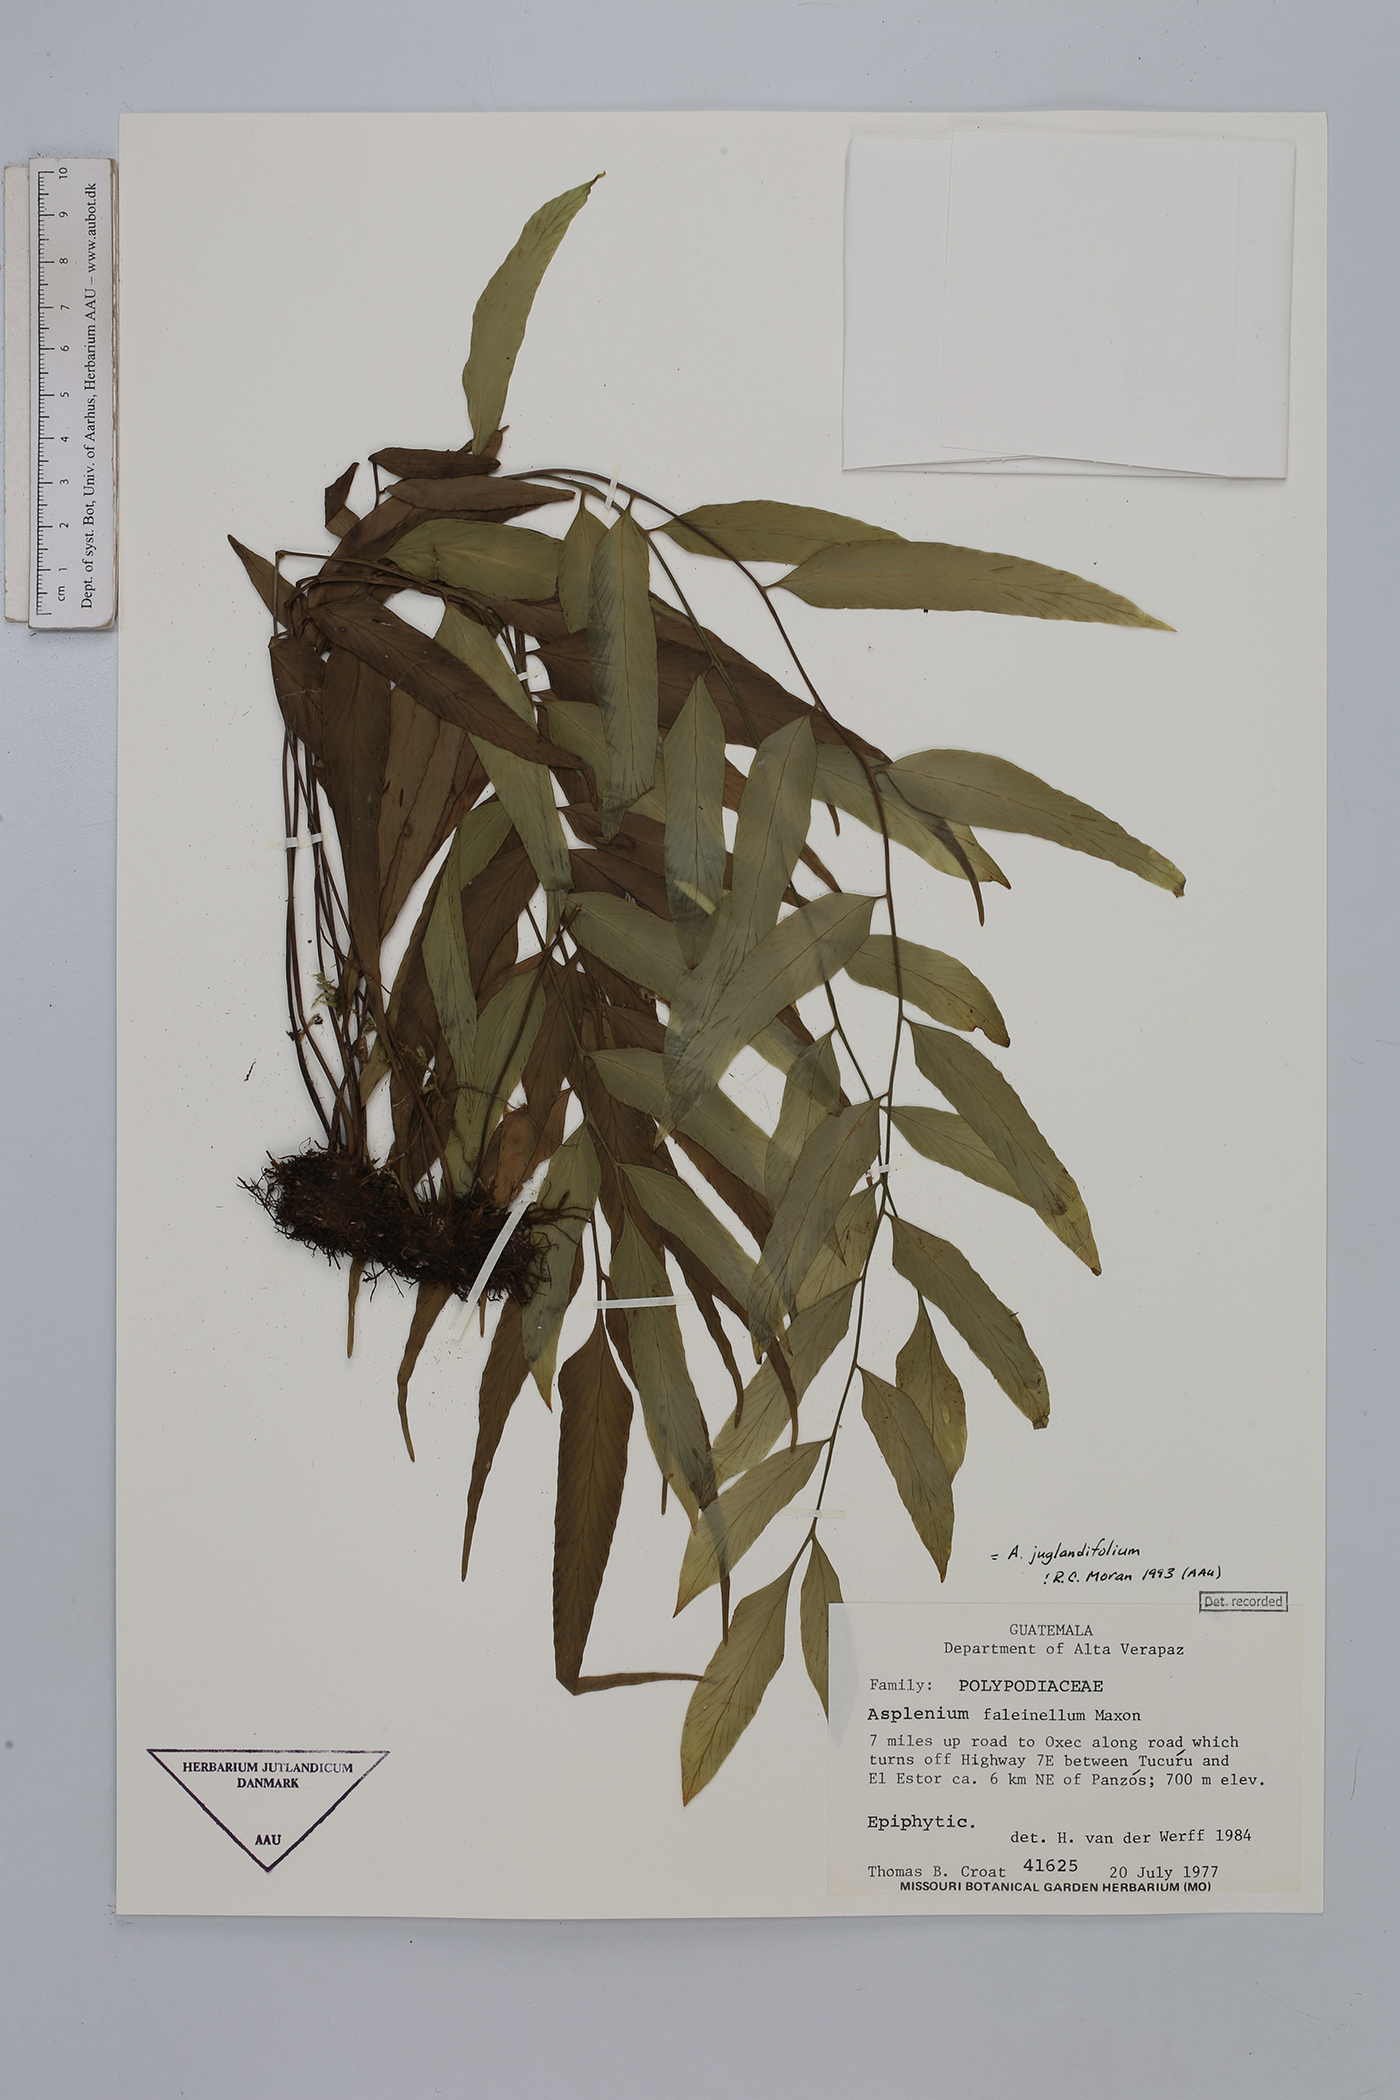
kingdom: Plantae
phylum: Tracheophyta
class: Polypodiopsida
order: Polypodiales
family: Aspleniaceae
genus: Asplenium
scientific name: Asplenium juglandifolium
